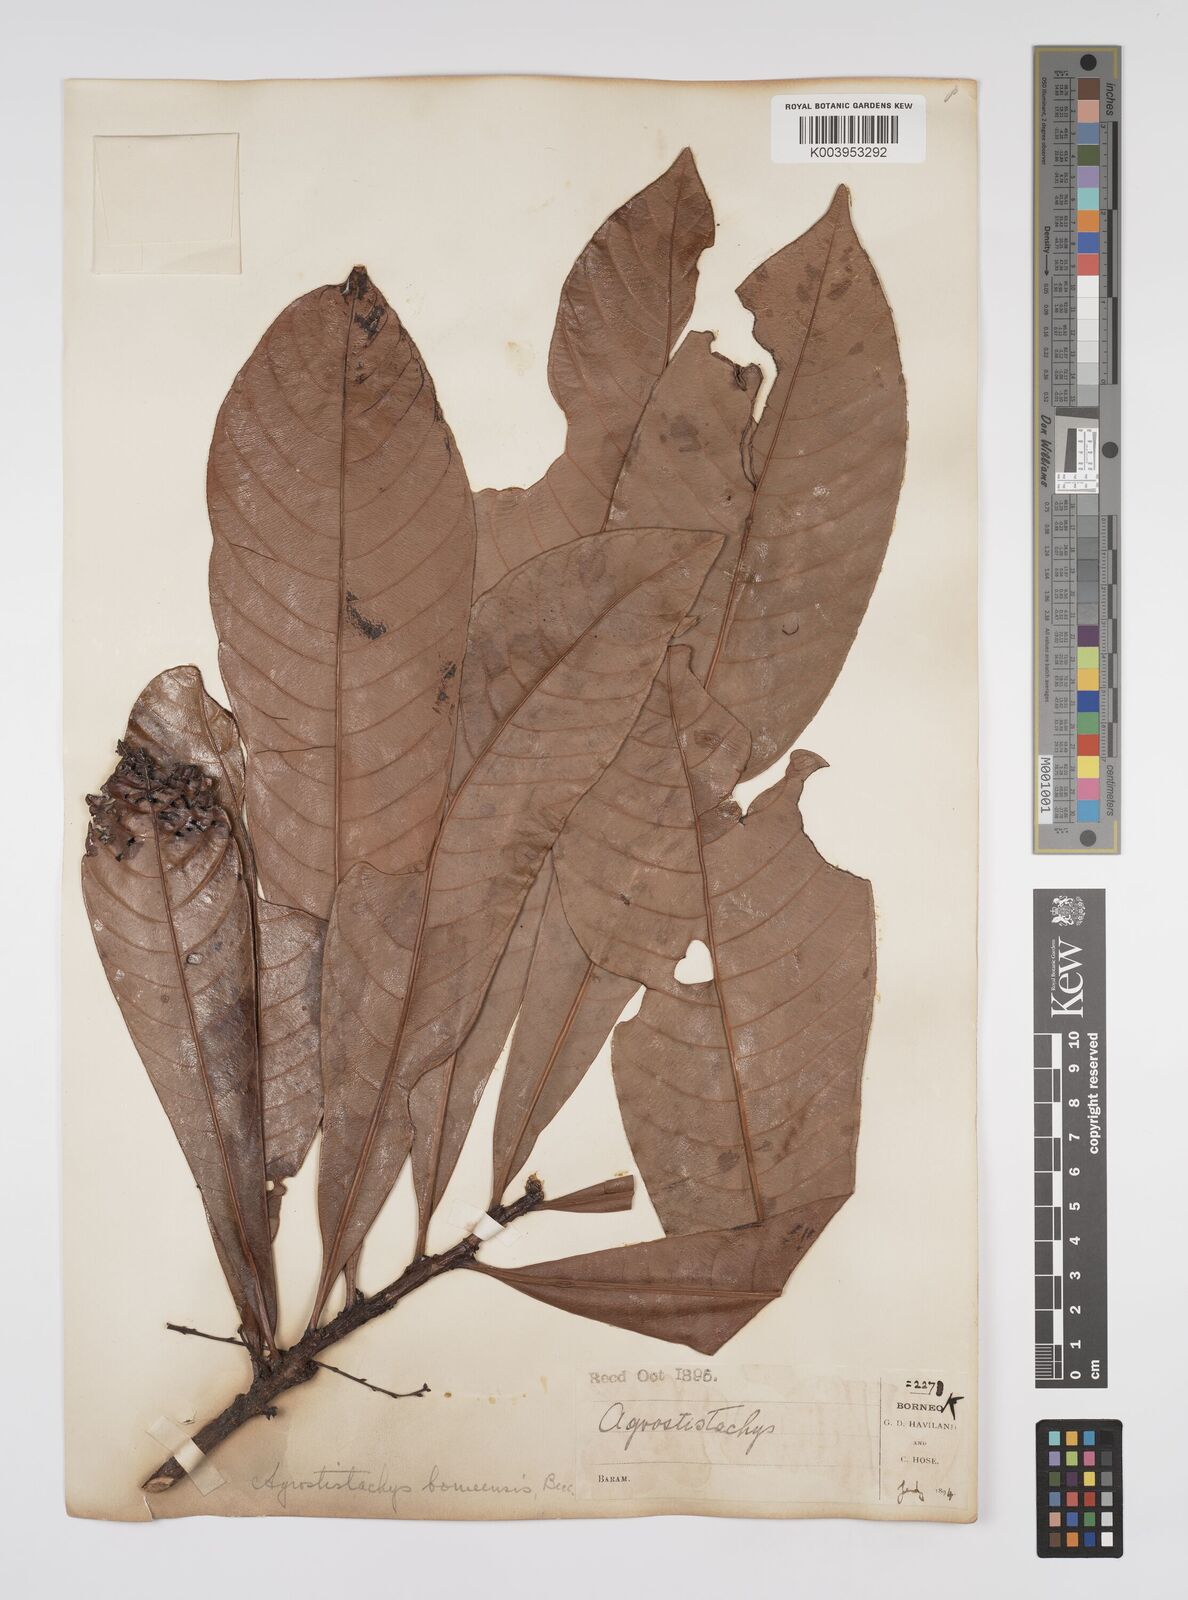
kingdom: Plantae
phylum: Tracheophyta
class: Magnoliopsida
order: Malpighiales
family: Euphorbiaceae
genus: Agrostistachys
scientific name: Agrostistachys
